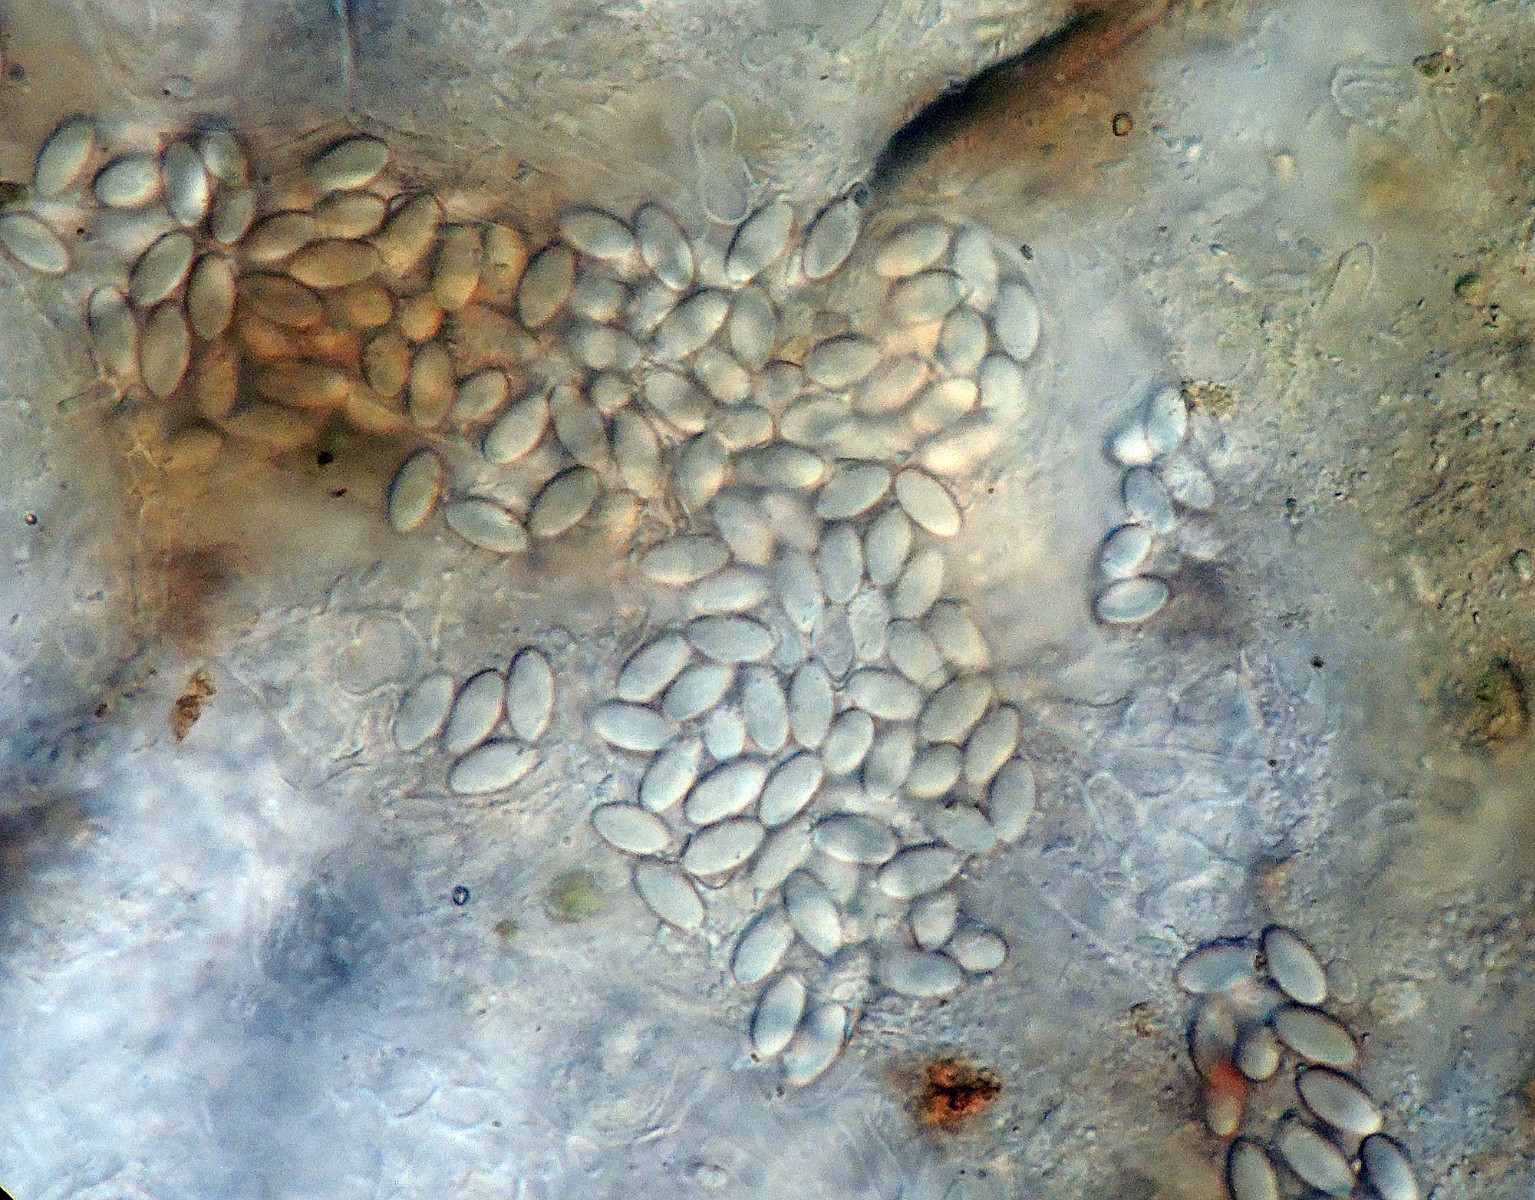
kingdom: Fungi
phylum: Ascomycota
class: Leotiomycetes
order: Thelebolales
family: Thelebolaceae
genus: Thelebolus
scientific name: Thelebolus stercoreus
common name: mangesporet småbæger
